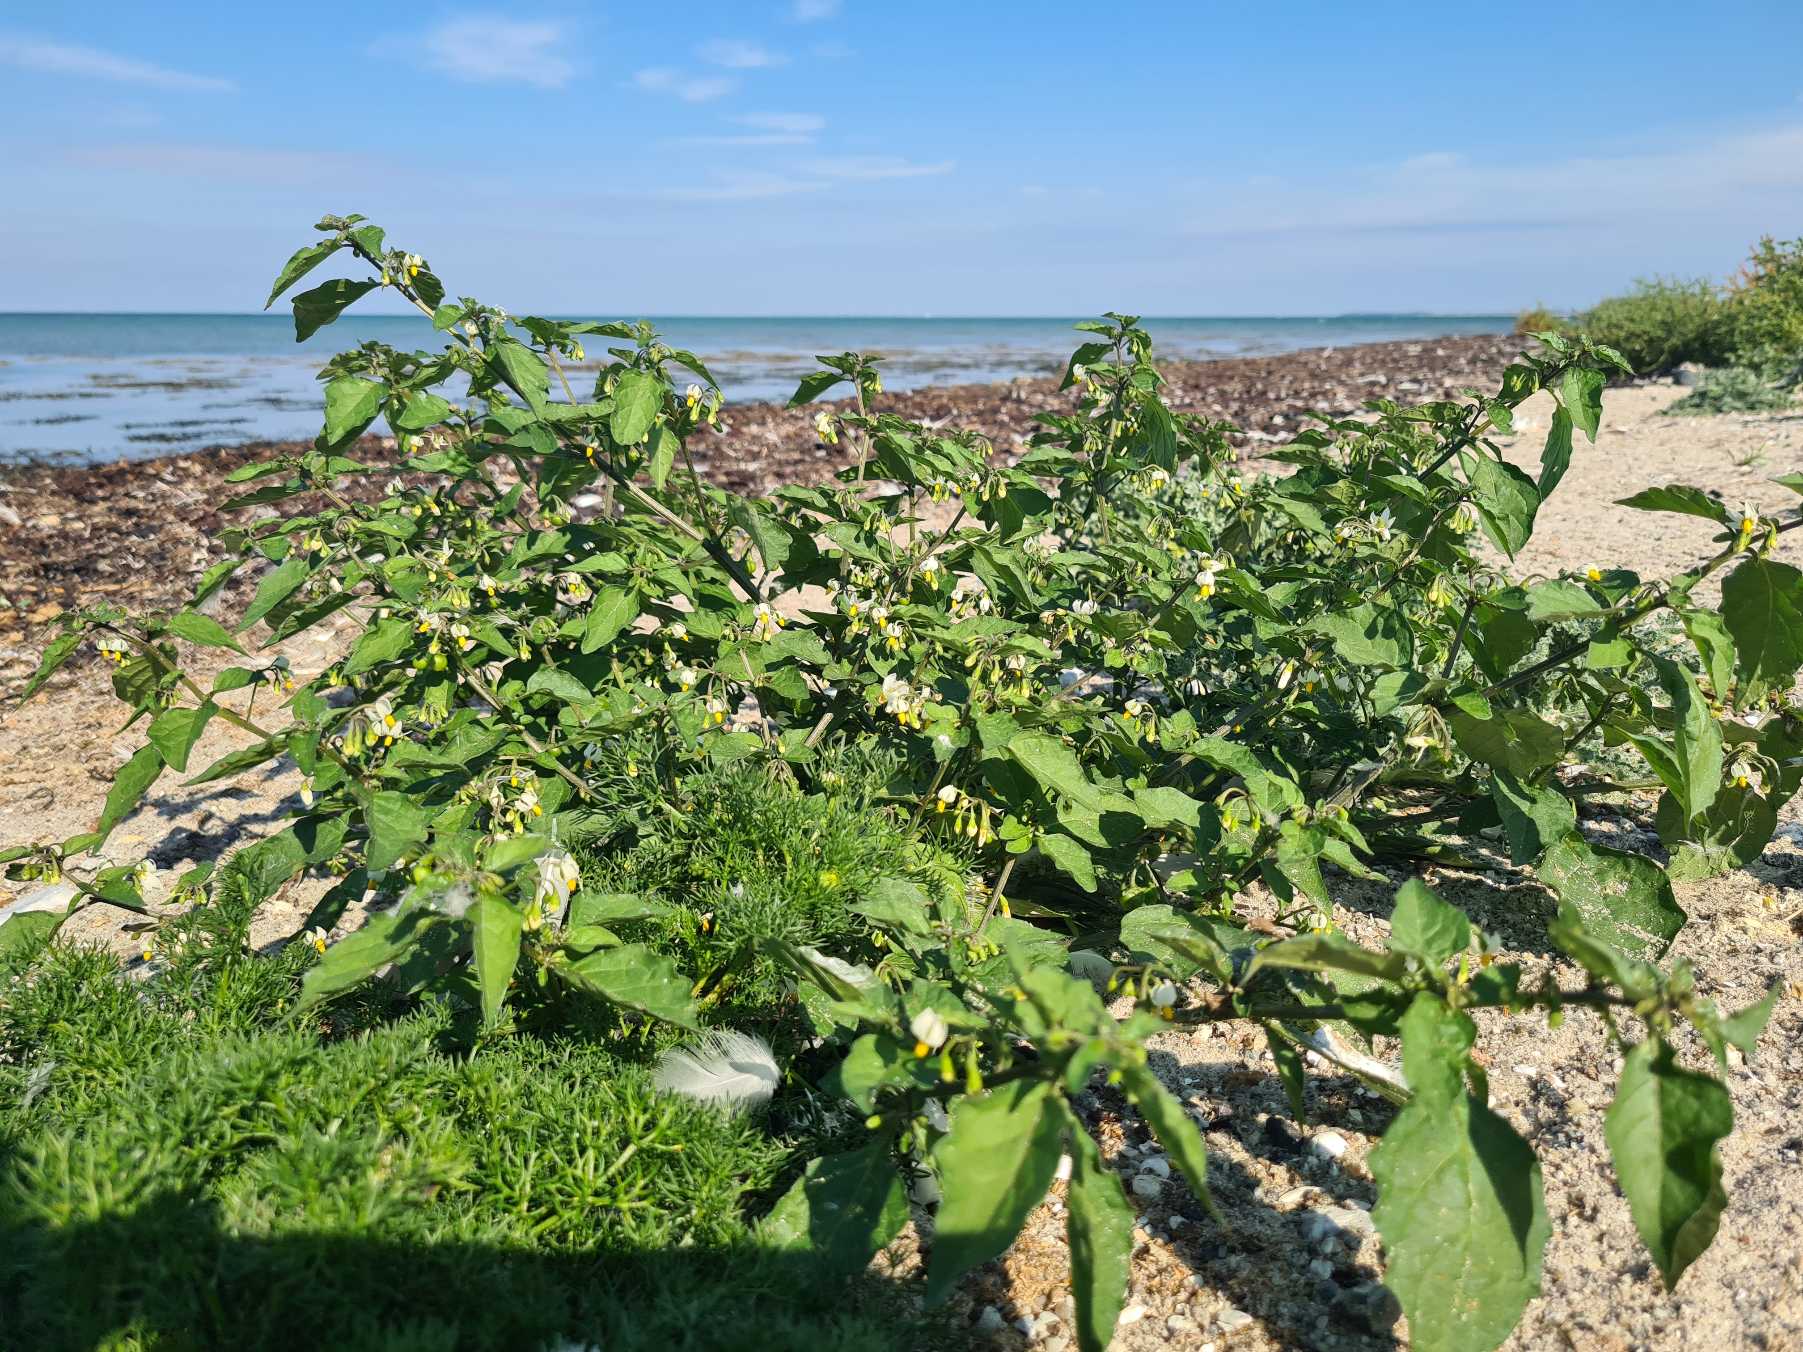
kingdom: Plantae
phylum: Tracheophyta
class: Magnoliopsida
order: Solanales
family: Solanaceae
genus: Solanum
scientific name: Solanum nigrum
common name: Sort natskygge
